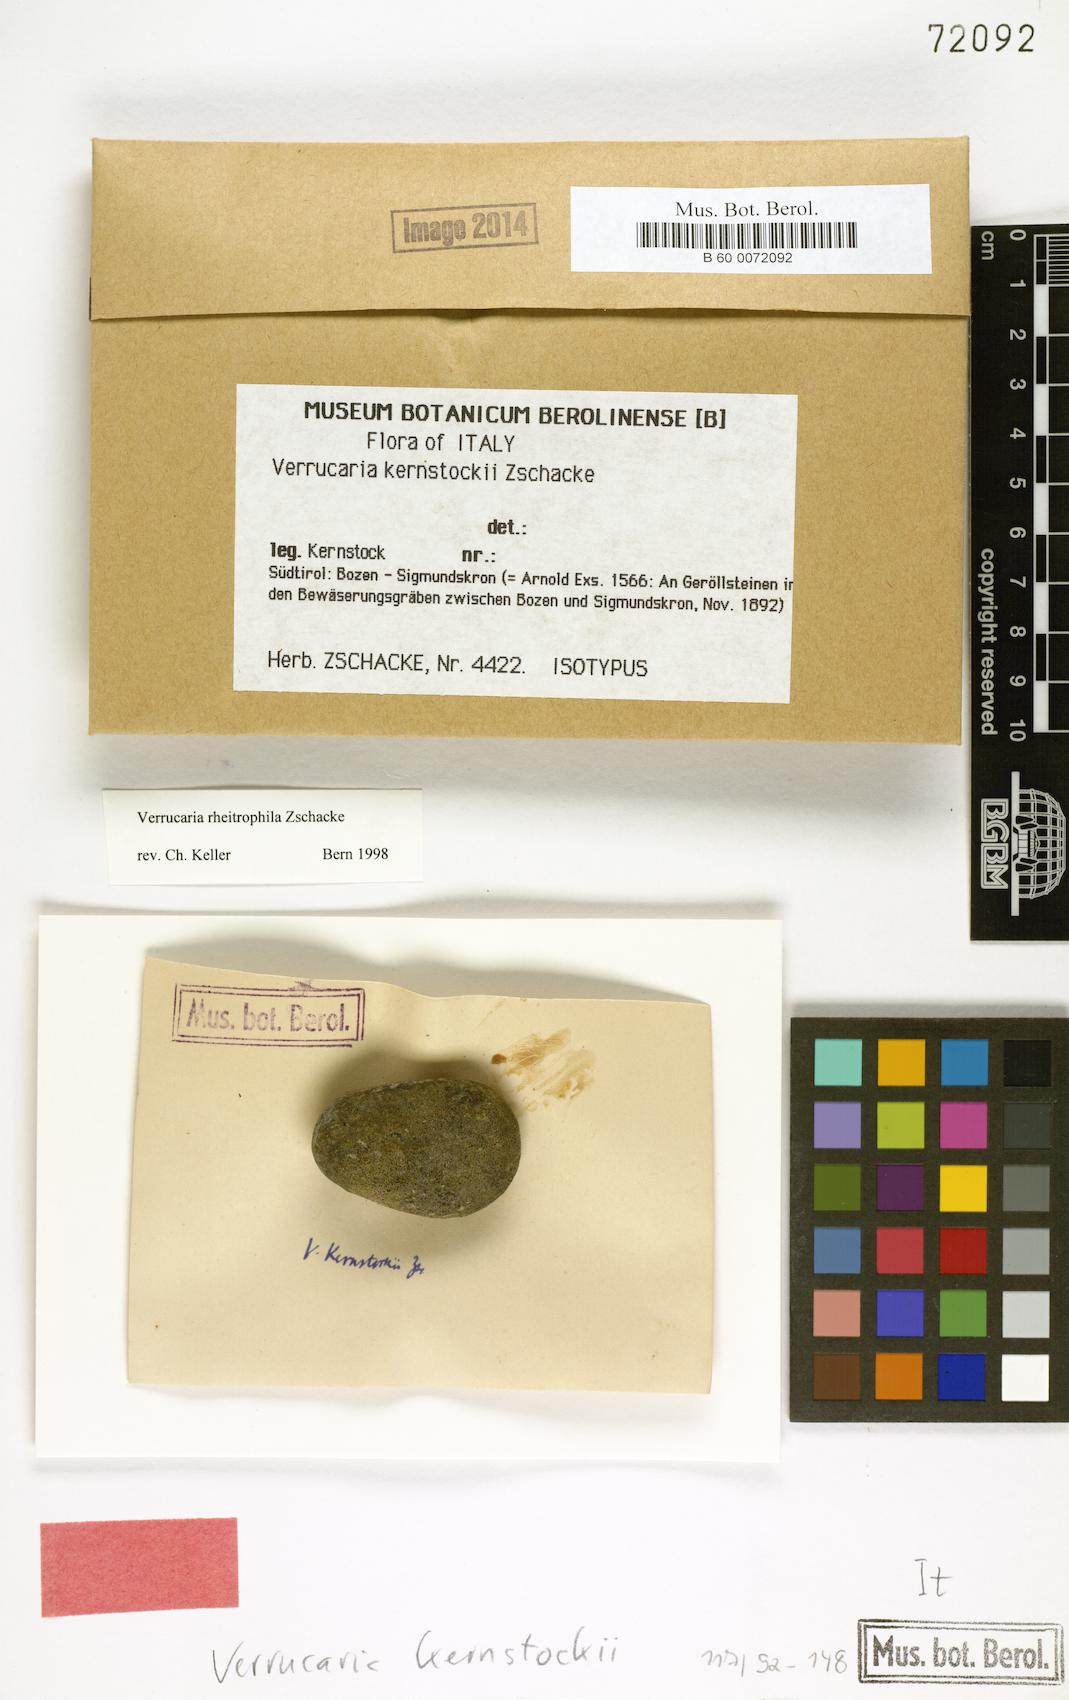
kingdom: Fungi
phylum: Ascomycota
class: Eurotiomycetes
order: Verrucariales
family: Verrucariaceae
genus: Hydropunctaria
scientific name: Hydropunctaria rheitrophila
